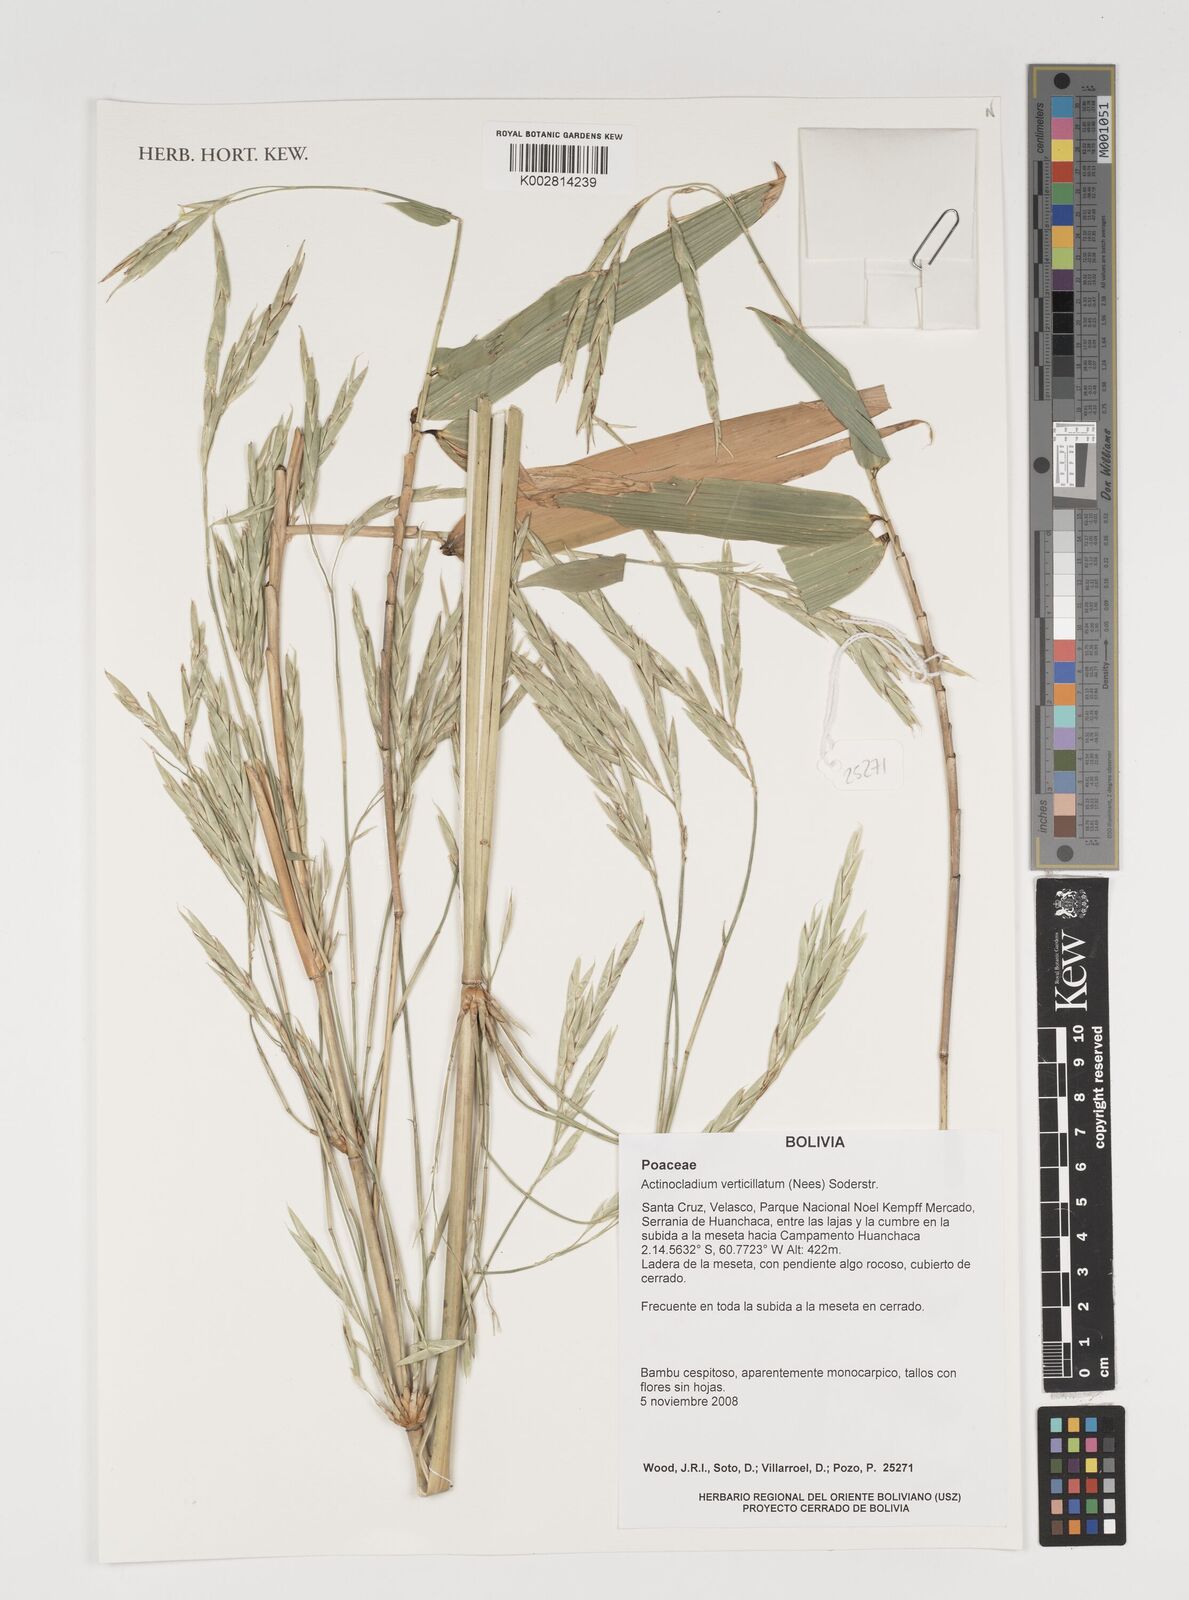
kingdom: Plantae
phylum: Tracheophyta
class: Liliopsida
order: Poales
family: Poaceae
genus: Actinocladum
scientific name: Actinocladum verticillatum
